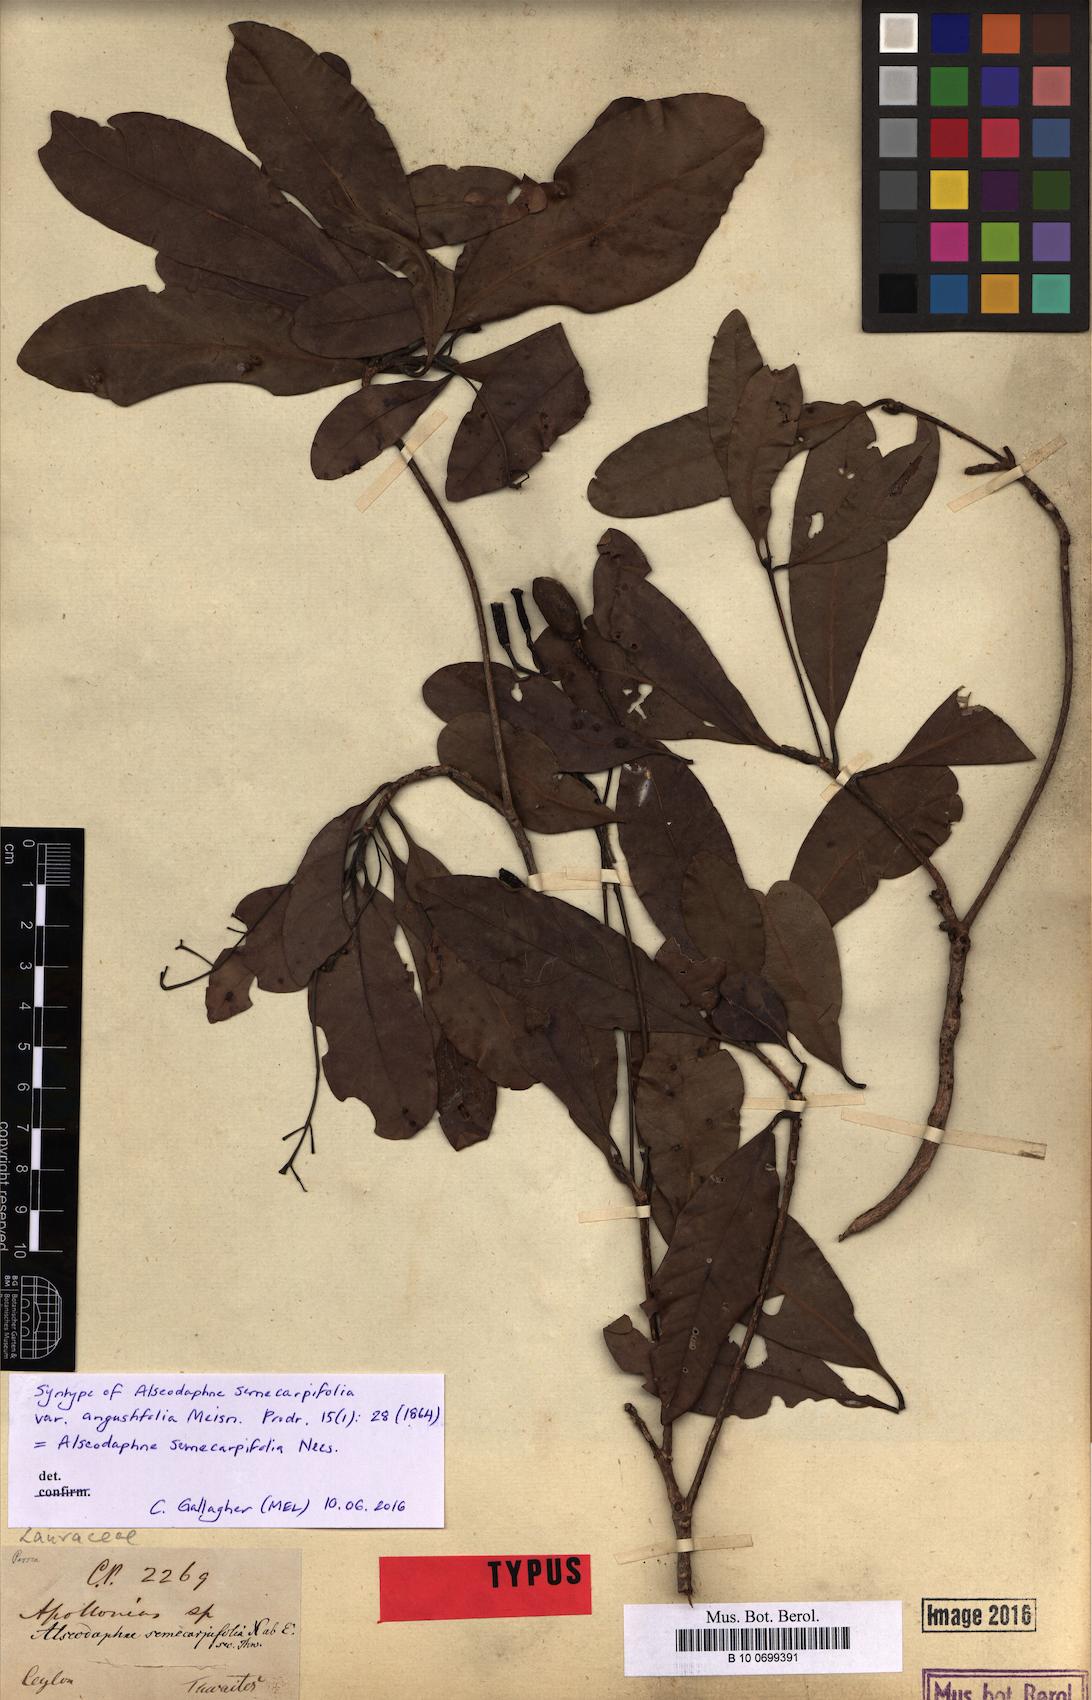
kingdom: Plantae
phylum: Tracheophyta
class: Magnoliopsida
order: Laurales
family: Lauraceae
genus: Alseodaphne
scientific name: Alseodaphne semecarpifolia
